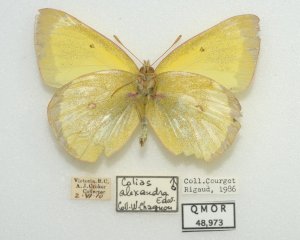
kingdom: Animalia
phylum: Arthropoda
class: Insecta
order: Lepidoptera
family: Pieridae
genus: Colias
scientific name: Colias alexandra
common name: Queen Alexandra's Sulphur
